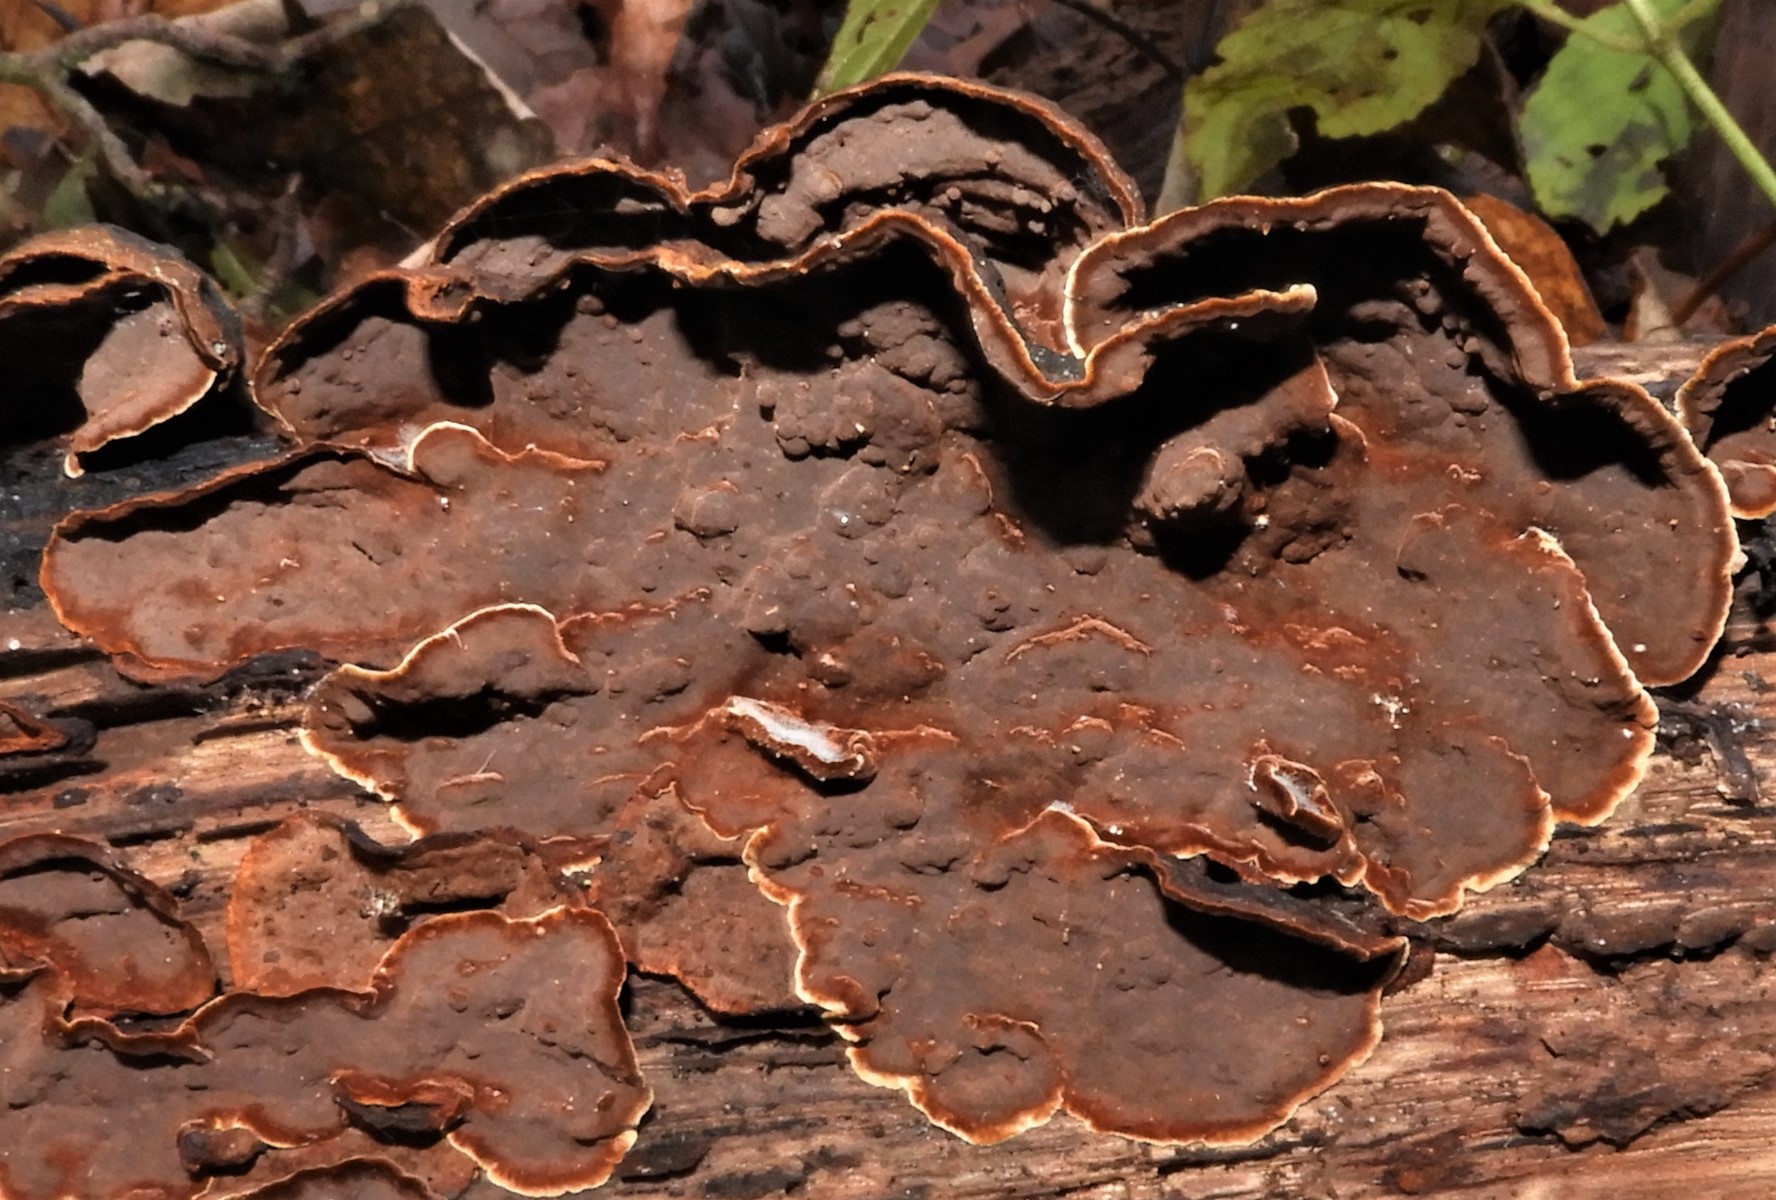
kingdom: Fungi
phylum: Basidiomycota
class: Agaricomycetes
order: Hymenochaetales
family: Hymenochaetaceae
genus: Hymenochaete
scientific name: Hymenochaete rubiginosa
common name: stiv ruslædersvamp
